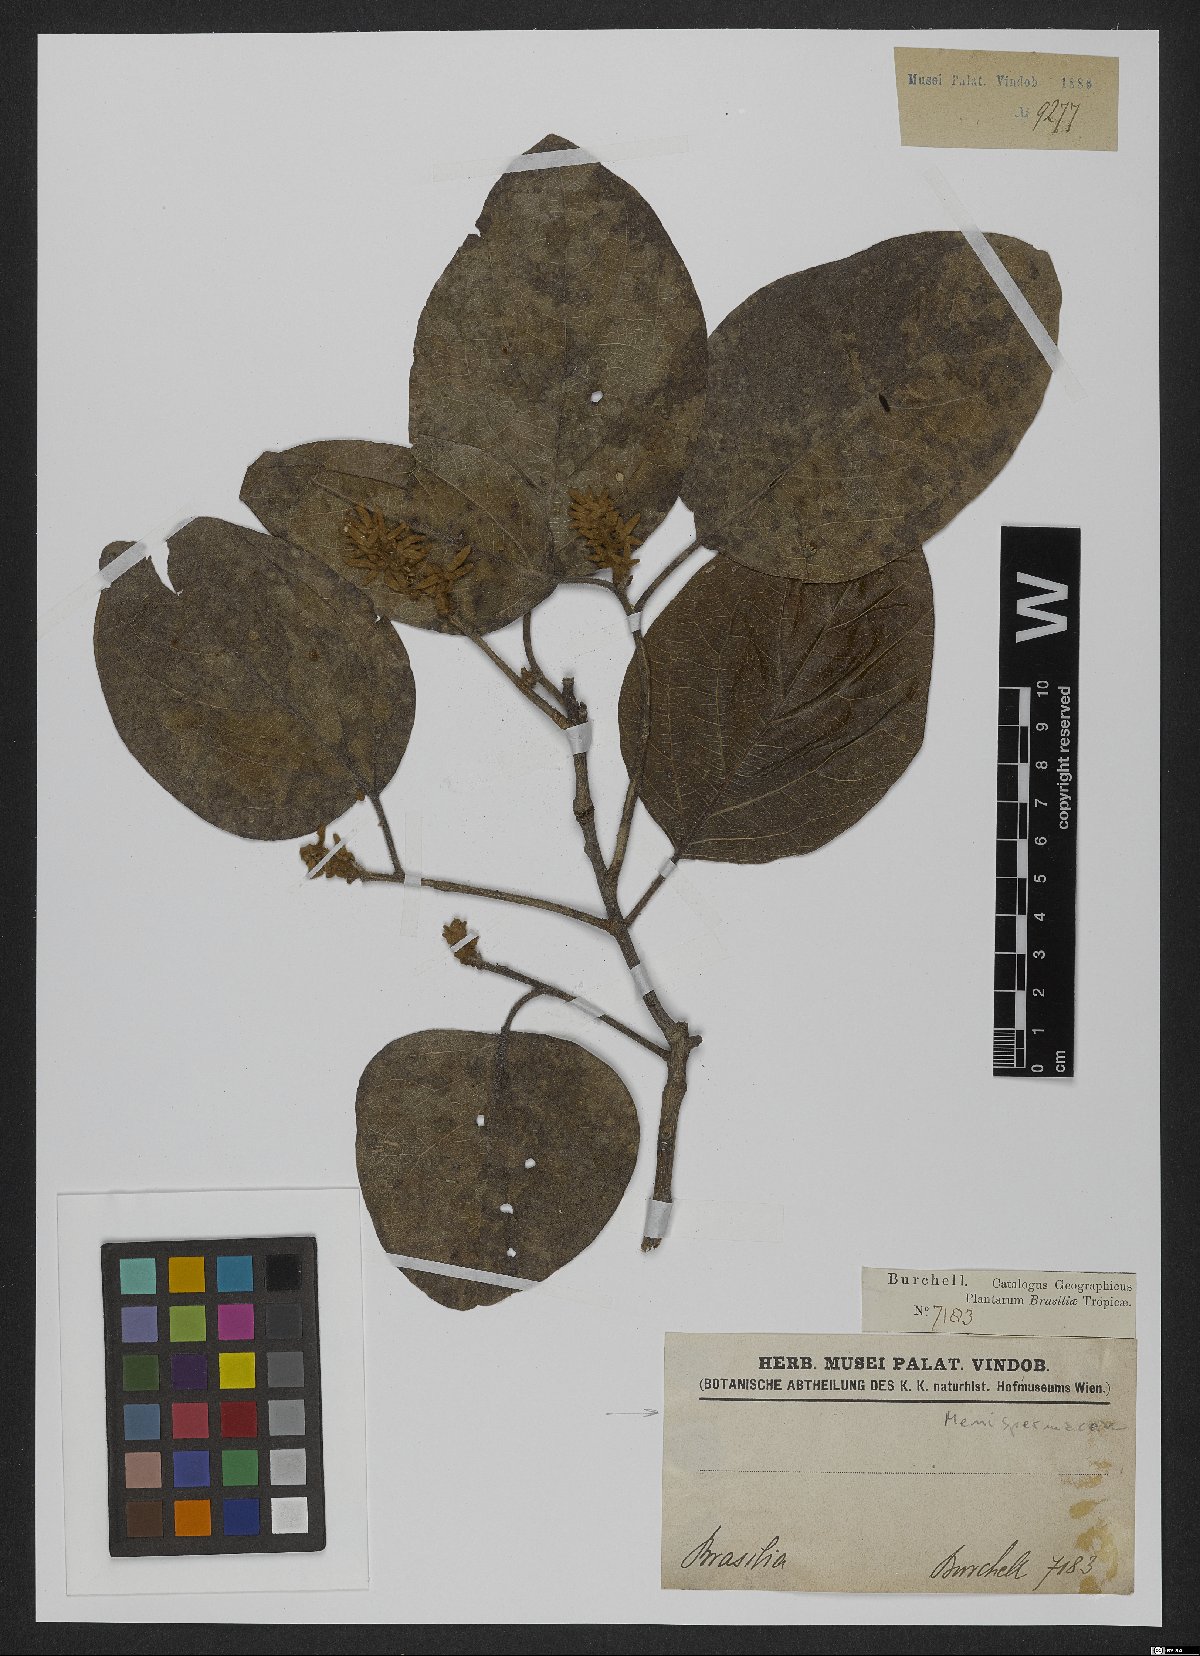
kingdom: Plantae
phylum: Tracheophyta
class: Magnoliopsida
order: Ranunculales
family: Menispermaceae
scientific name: Menispermaceae
